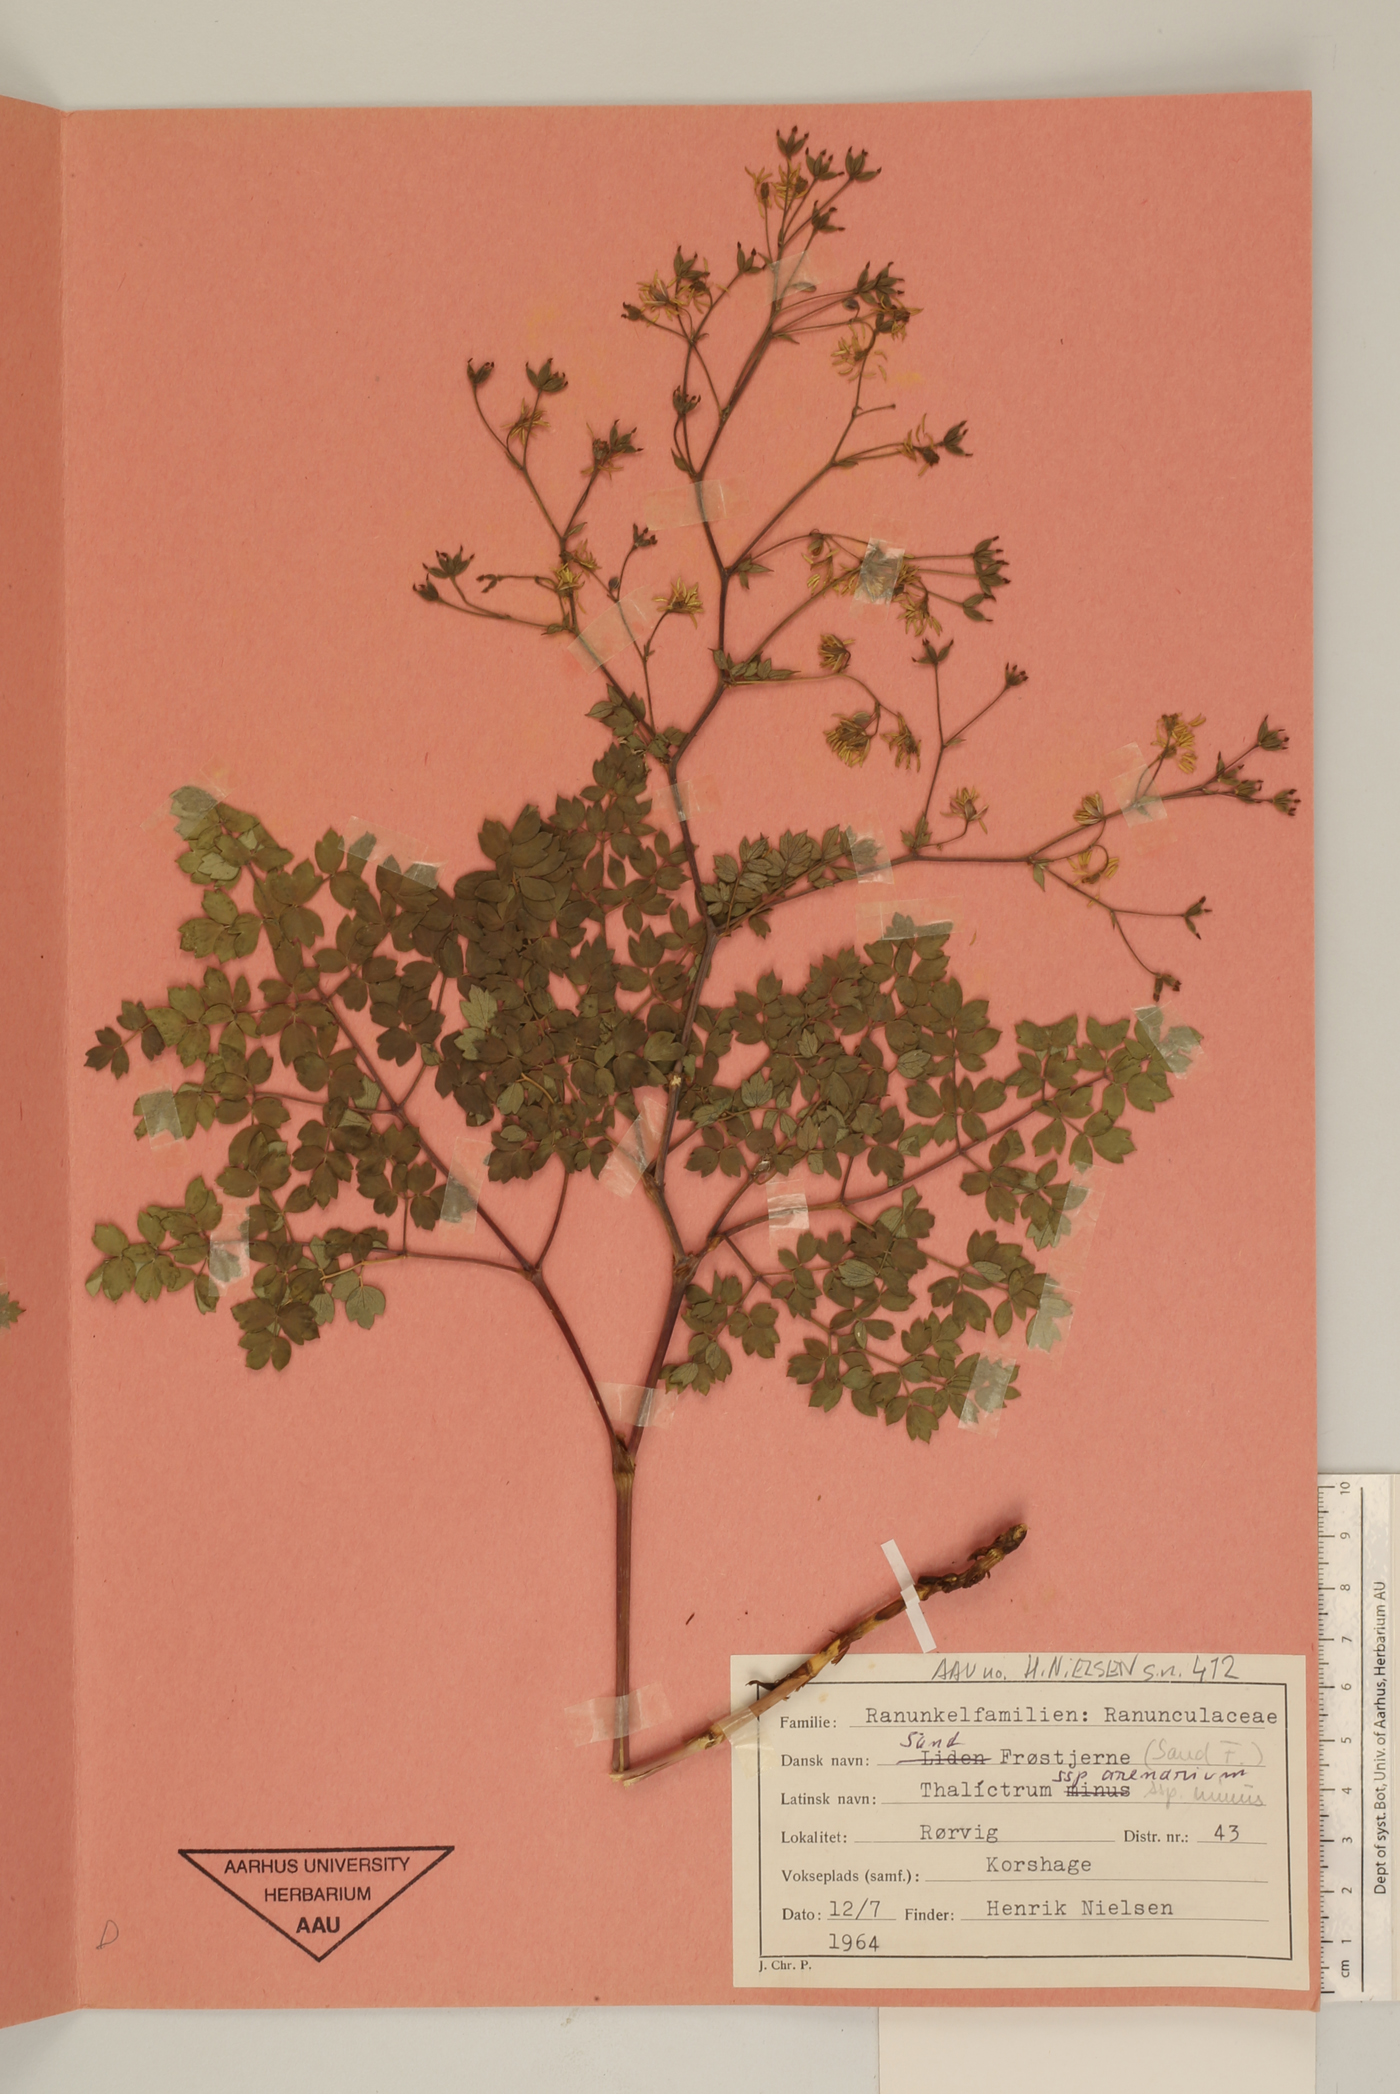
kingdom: Plantae
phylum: Tracheophyta
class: Magnoliopsida
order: Ranunculales
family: Ranunculaceae
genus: Thalictrum
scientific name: Thalictrum minus
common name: Lesser meadow-rue
